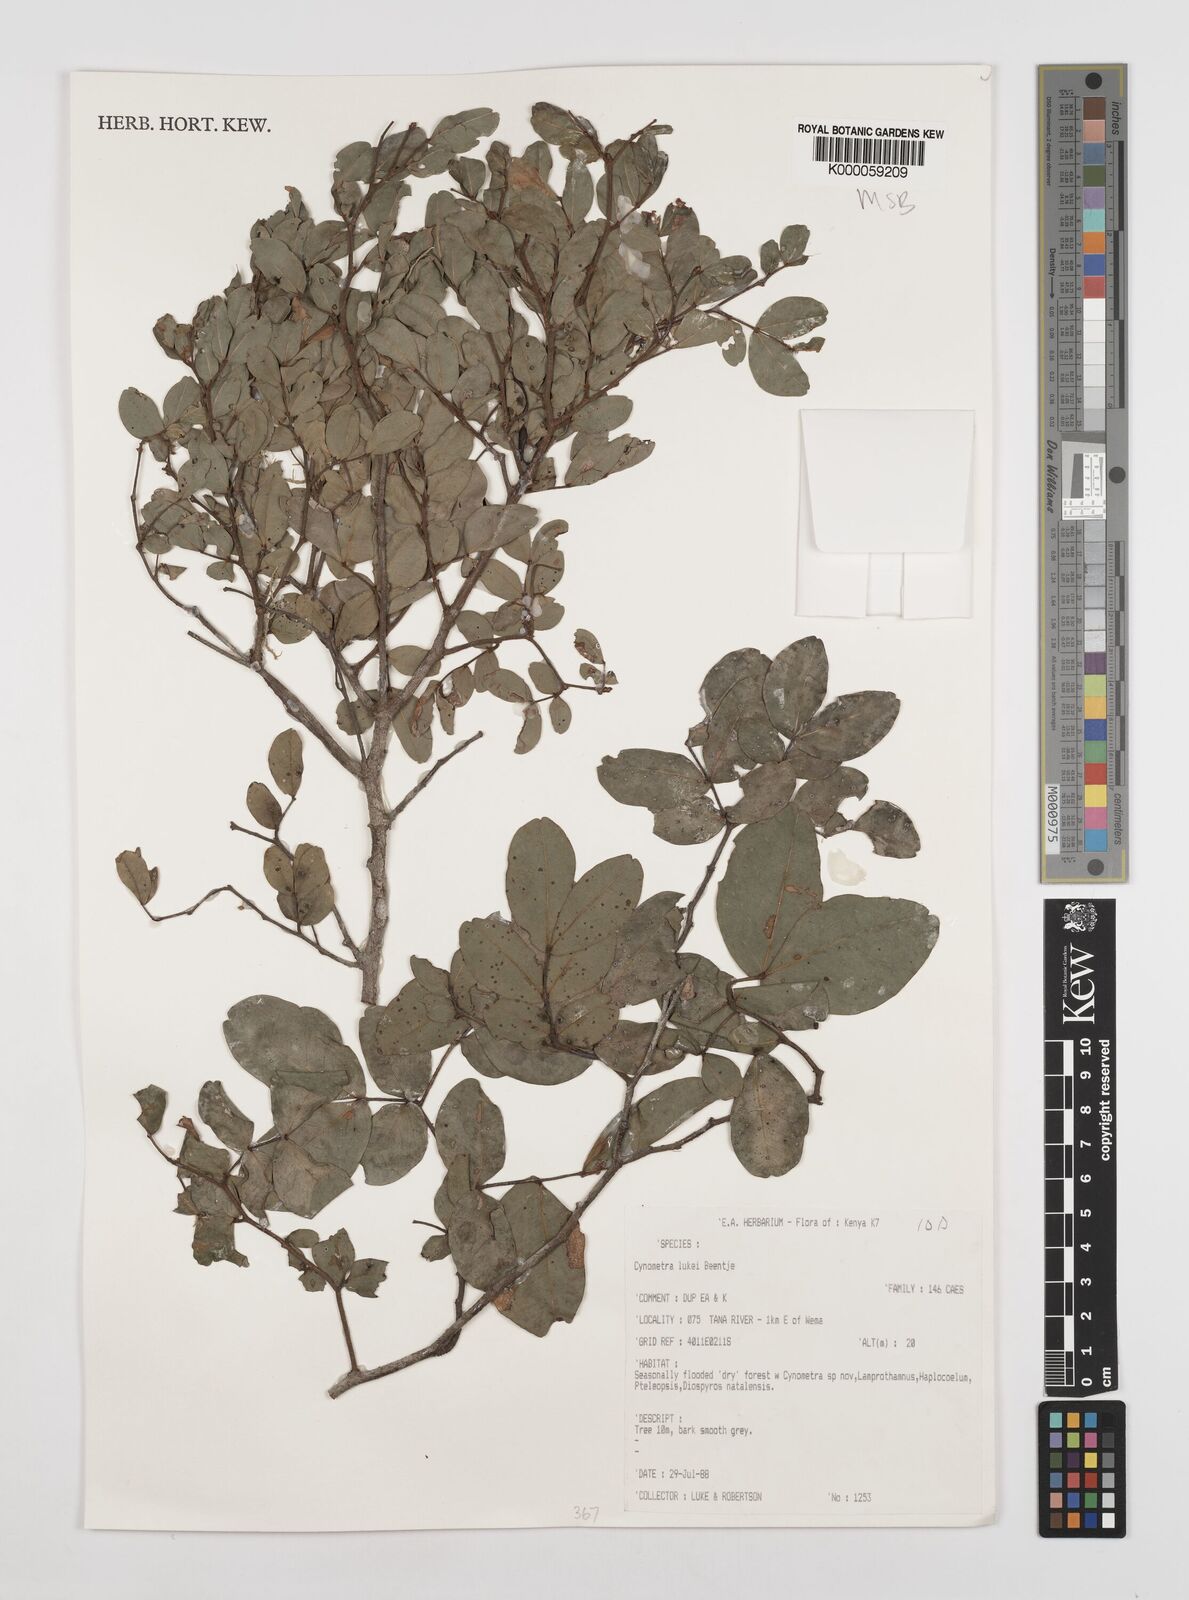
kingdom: Plantae
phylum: Tracheophyta
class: Magnoliopsida
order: Fabales
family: Fabaceae
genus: Cynometra
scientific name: Cynometra lukei
